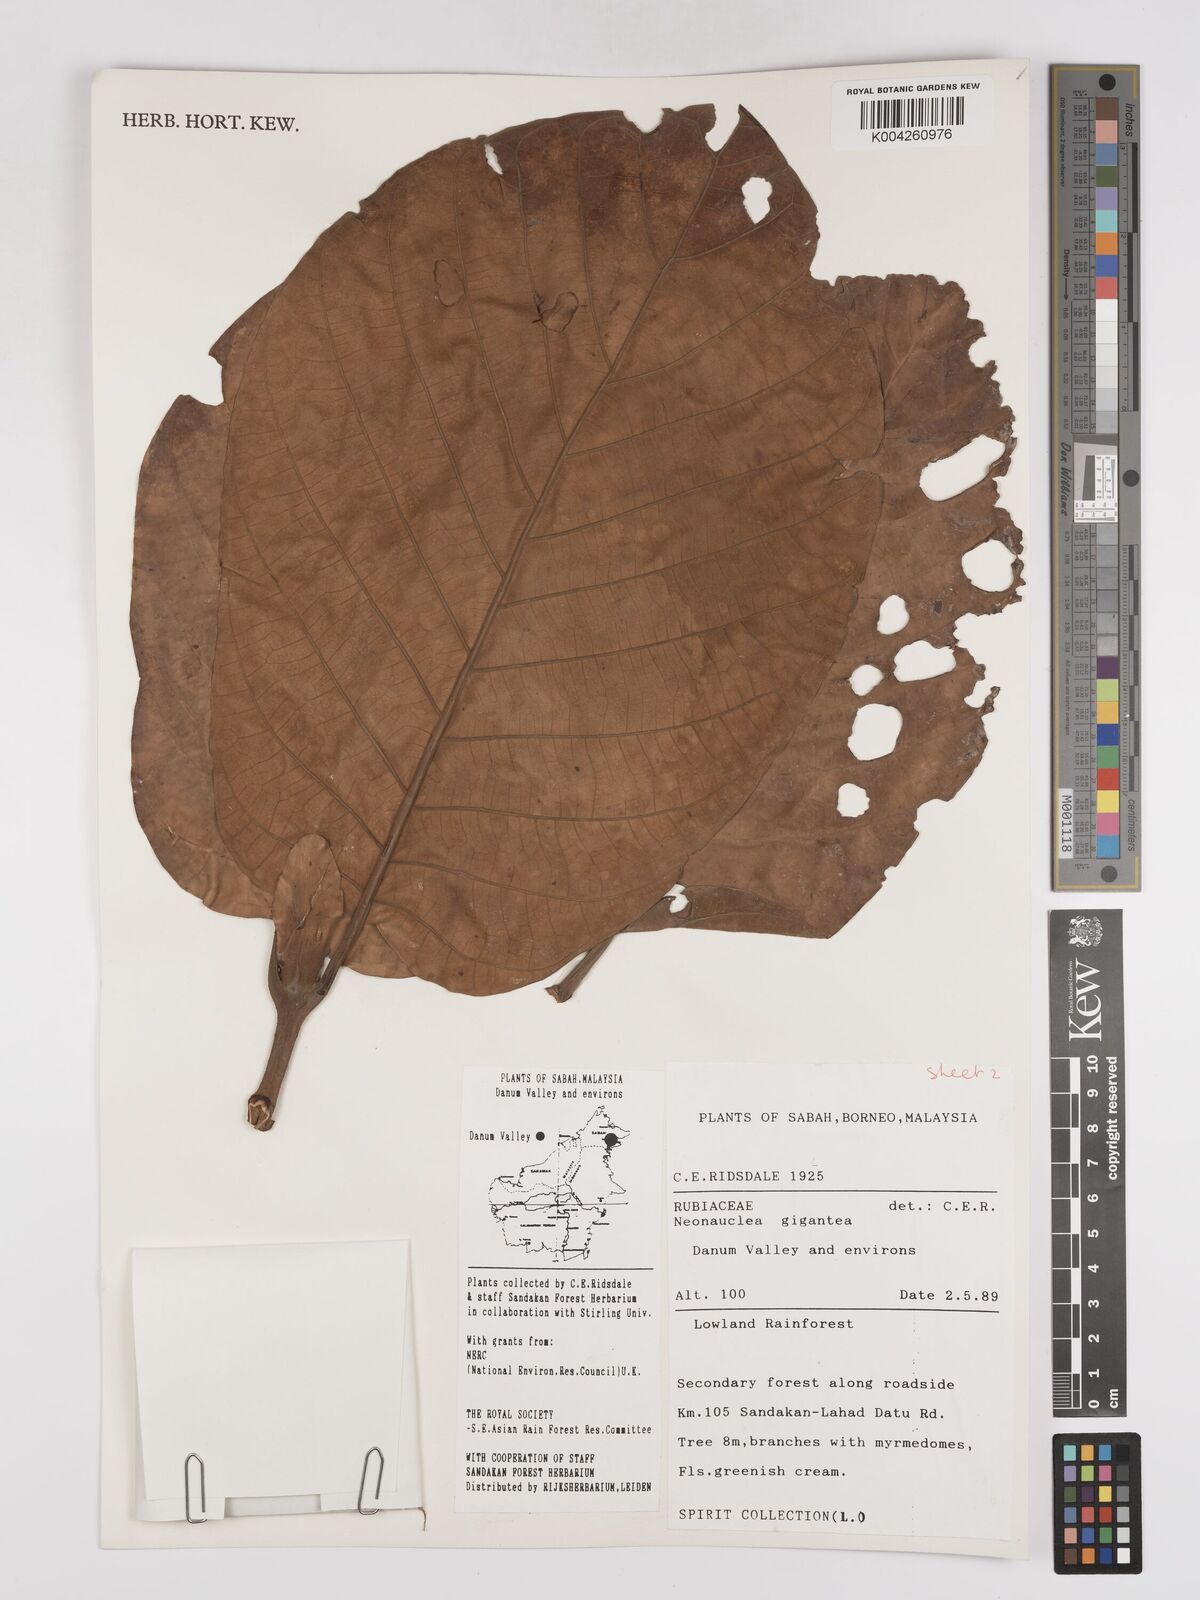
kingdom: Plantae
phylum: Tracheophyta
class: Magnoliopsida
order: Gentianales
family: Rubiaceae
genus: Neonauclea
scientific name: Neonauclea gigantea
